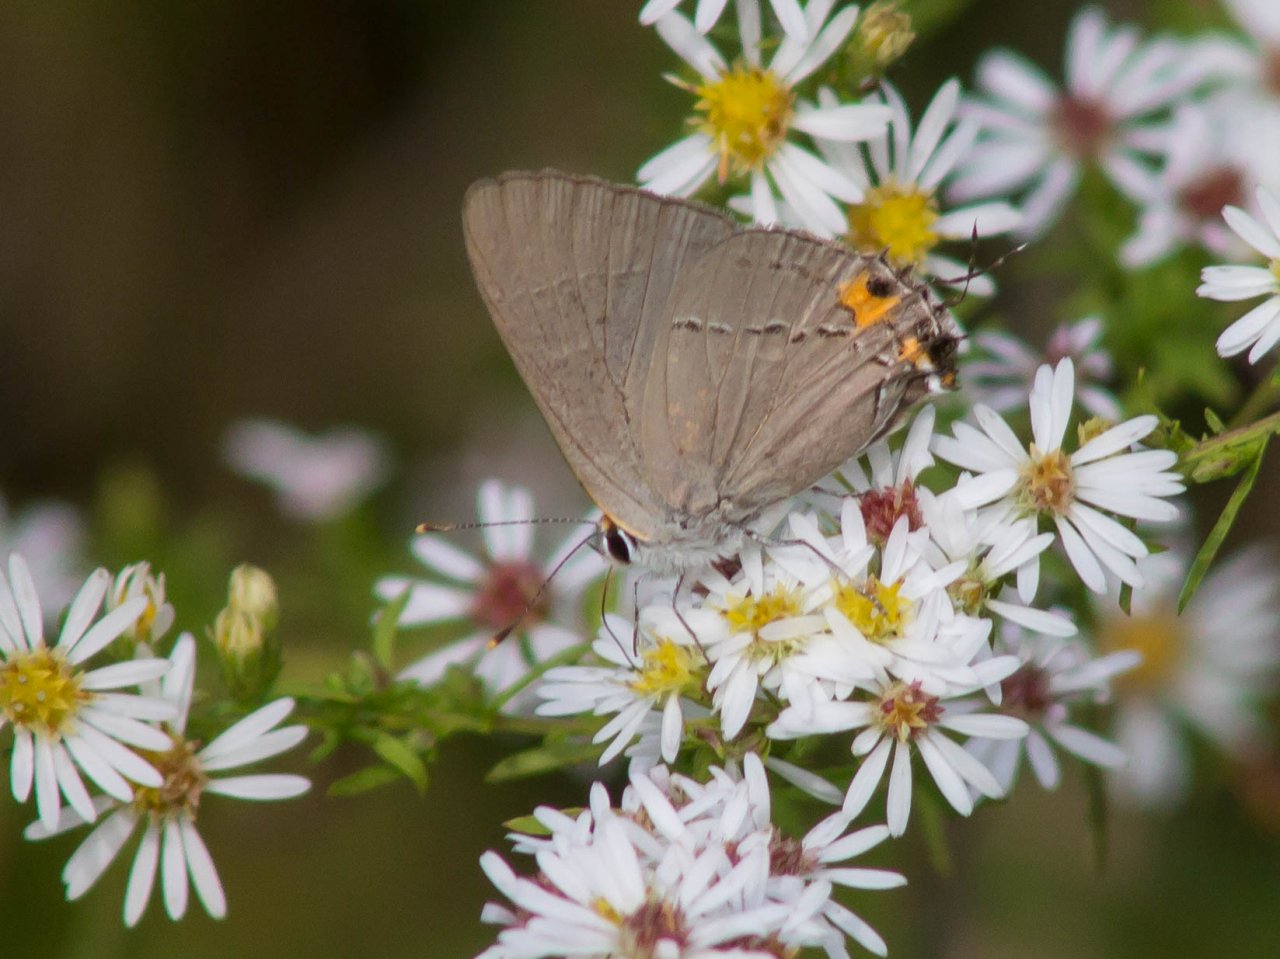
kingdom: Animalia
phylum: Arthropoda
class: Insecta
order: Lepidoptera
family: Lycaenidae
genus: Strymon
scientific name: Strymon melinus
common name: Gray Hairstreak
